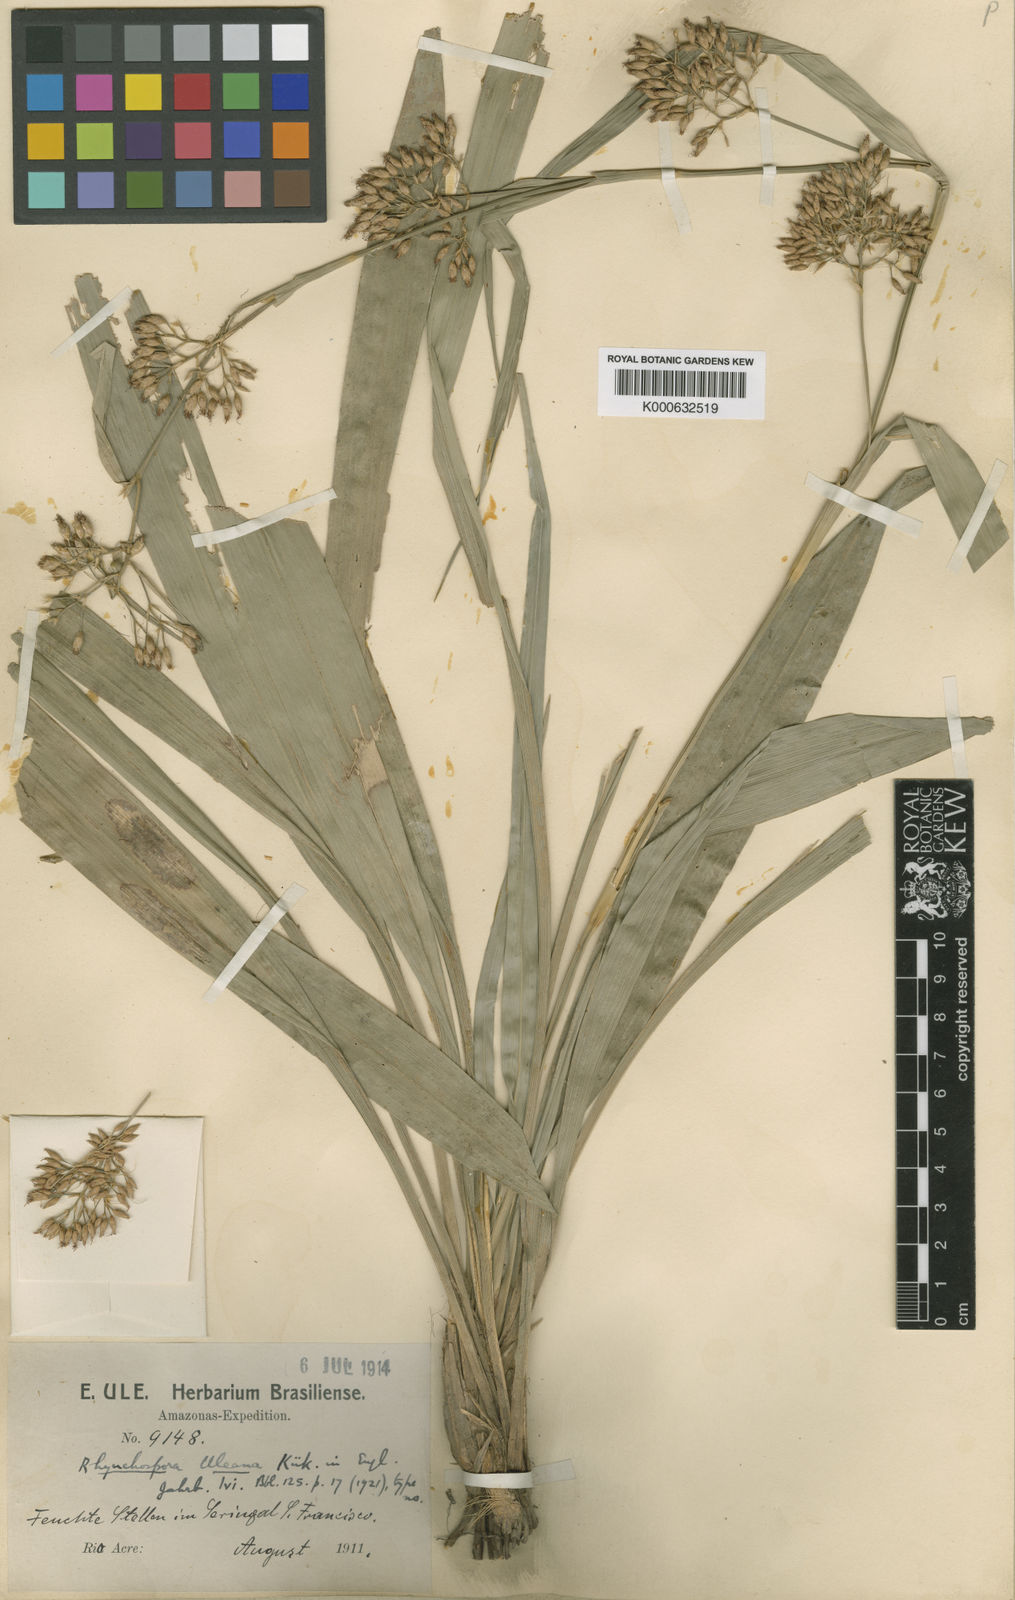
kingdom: Plantae
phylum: Tracheophyta
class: Liliopsida
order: Poales
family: Cyperaceae
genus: Rhynchospora
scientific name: Rhynchospora
